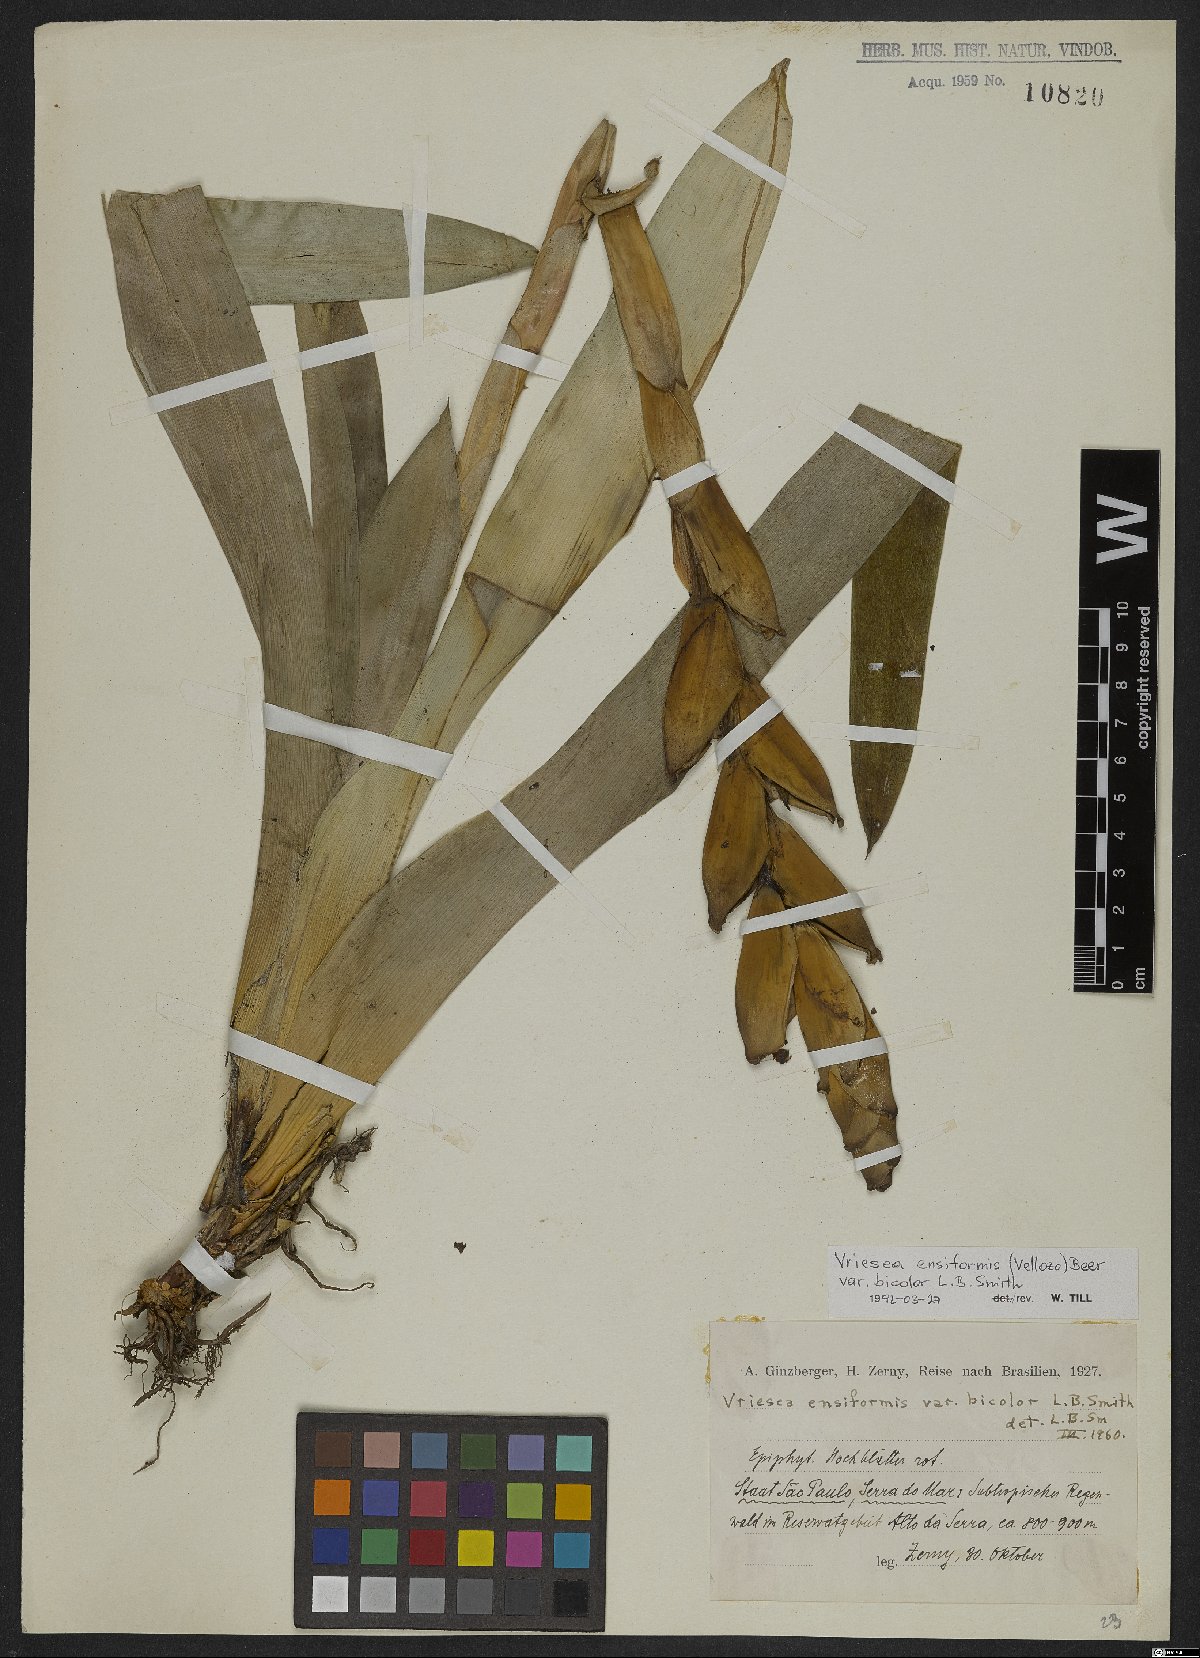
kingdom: Plantae
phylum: Tracheophyta
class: Liliopsida
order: Poales
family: Bromeliaceae
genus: Vriesea
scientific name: Vriesea ensiformis
